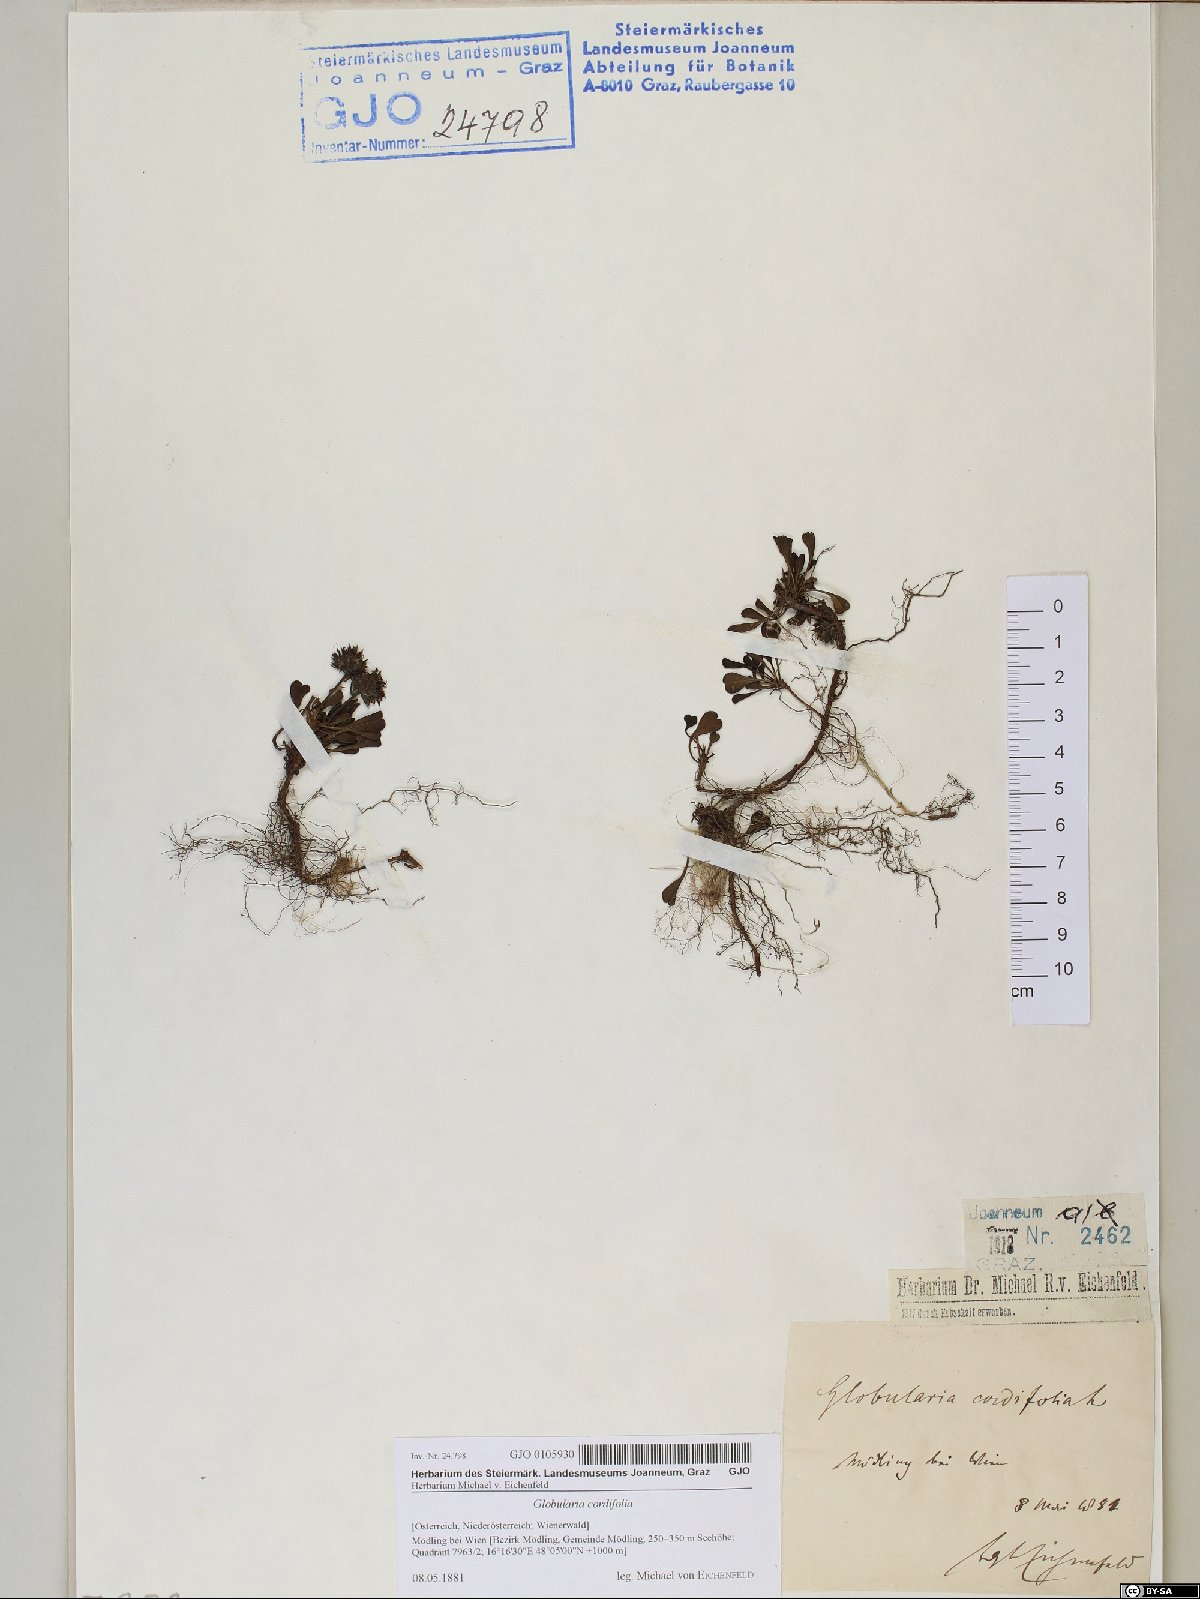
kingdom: Plantae
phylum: Tracheophyta
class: Magnoliopsida
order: Lamiales
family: Plantaginaceae
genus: Globularia
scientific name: Globularia cordifolia
